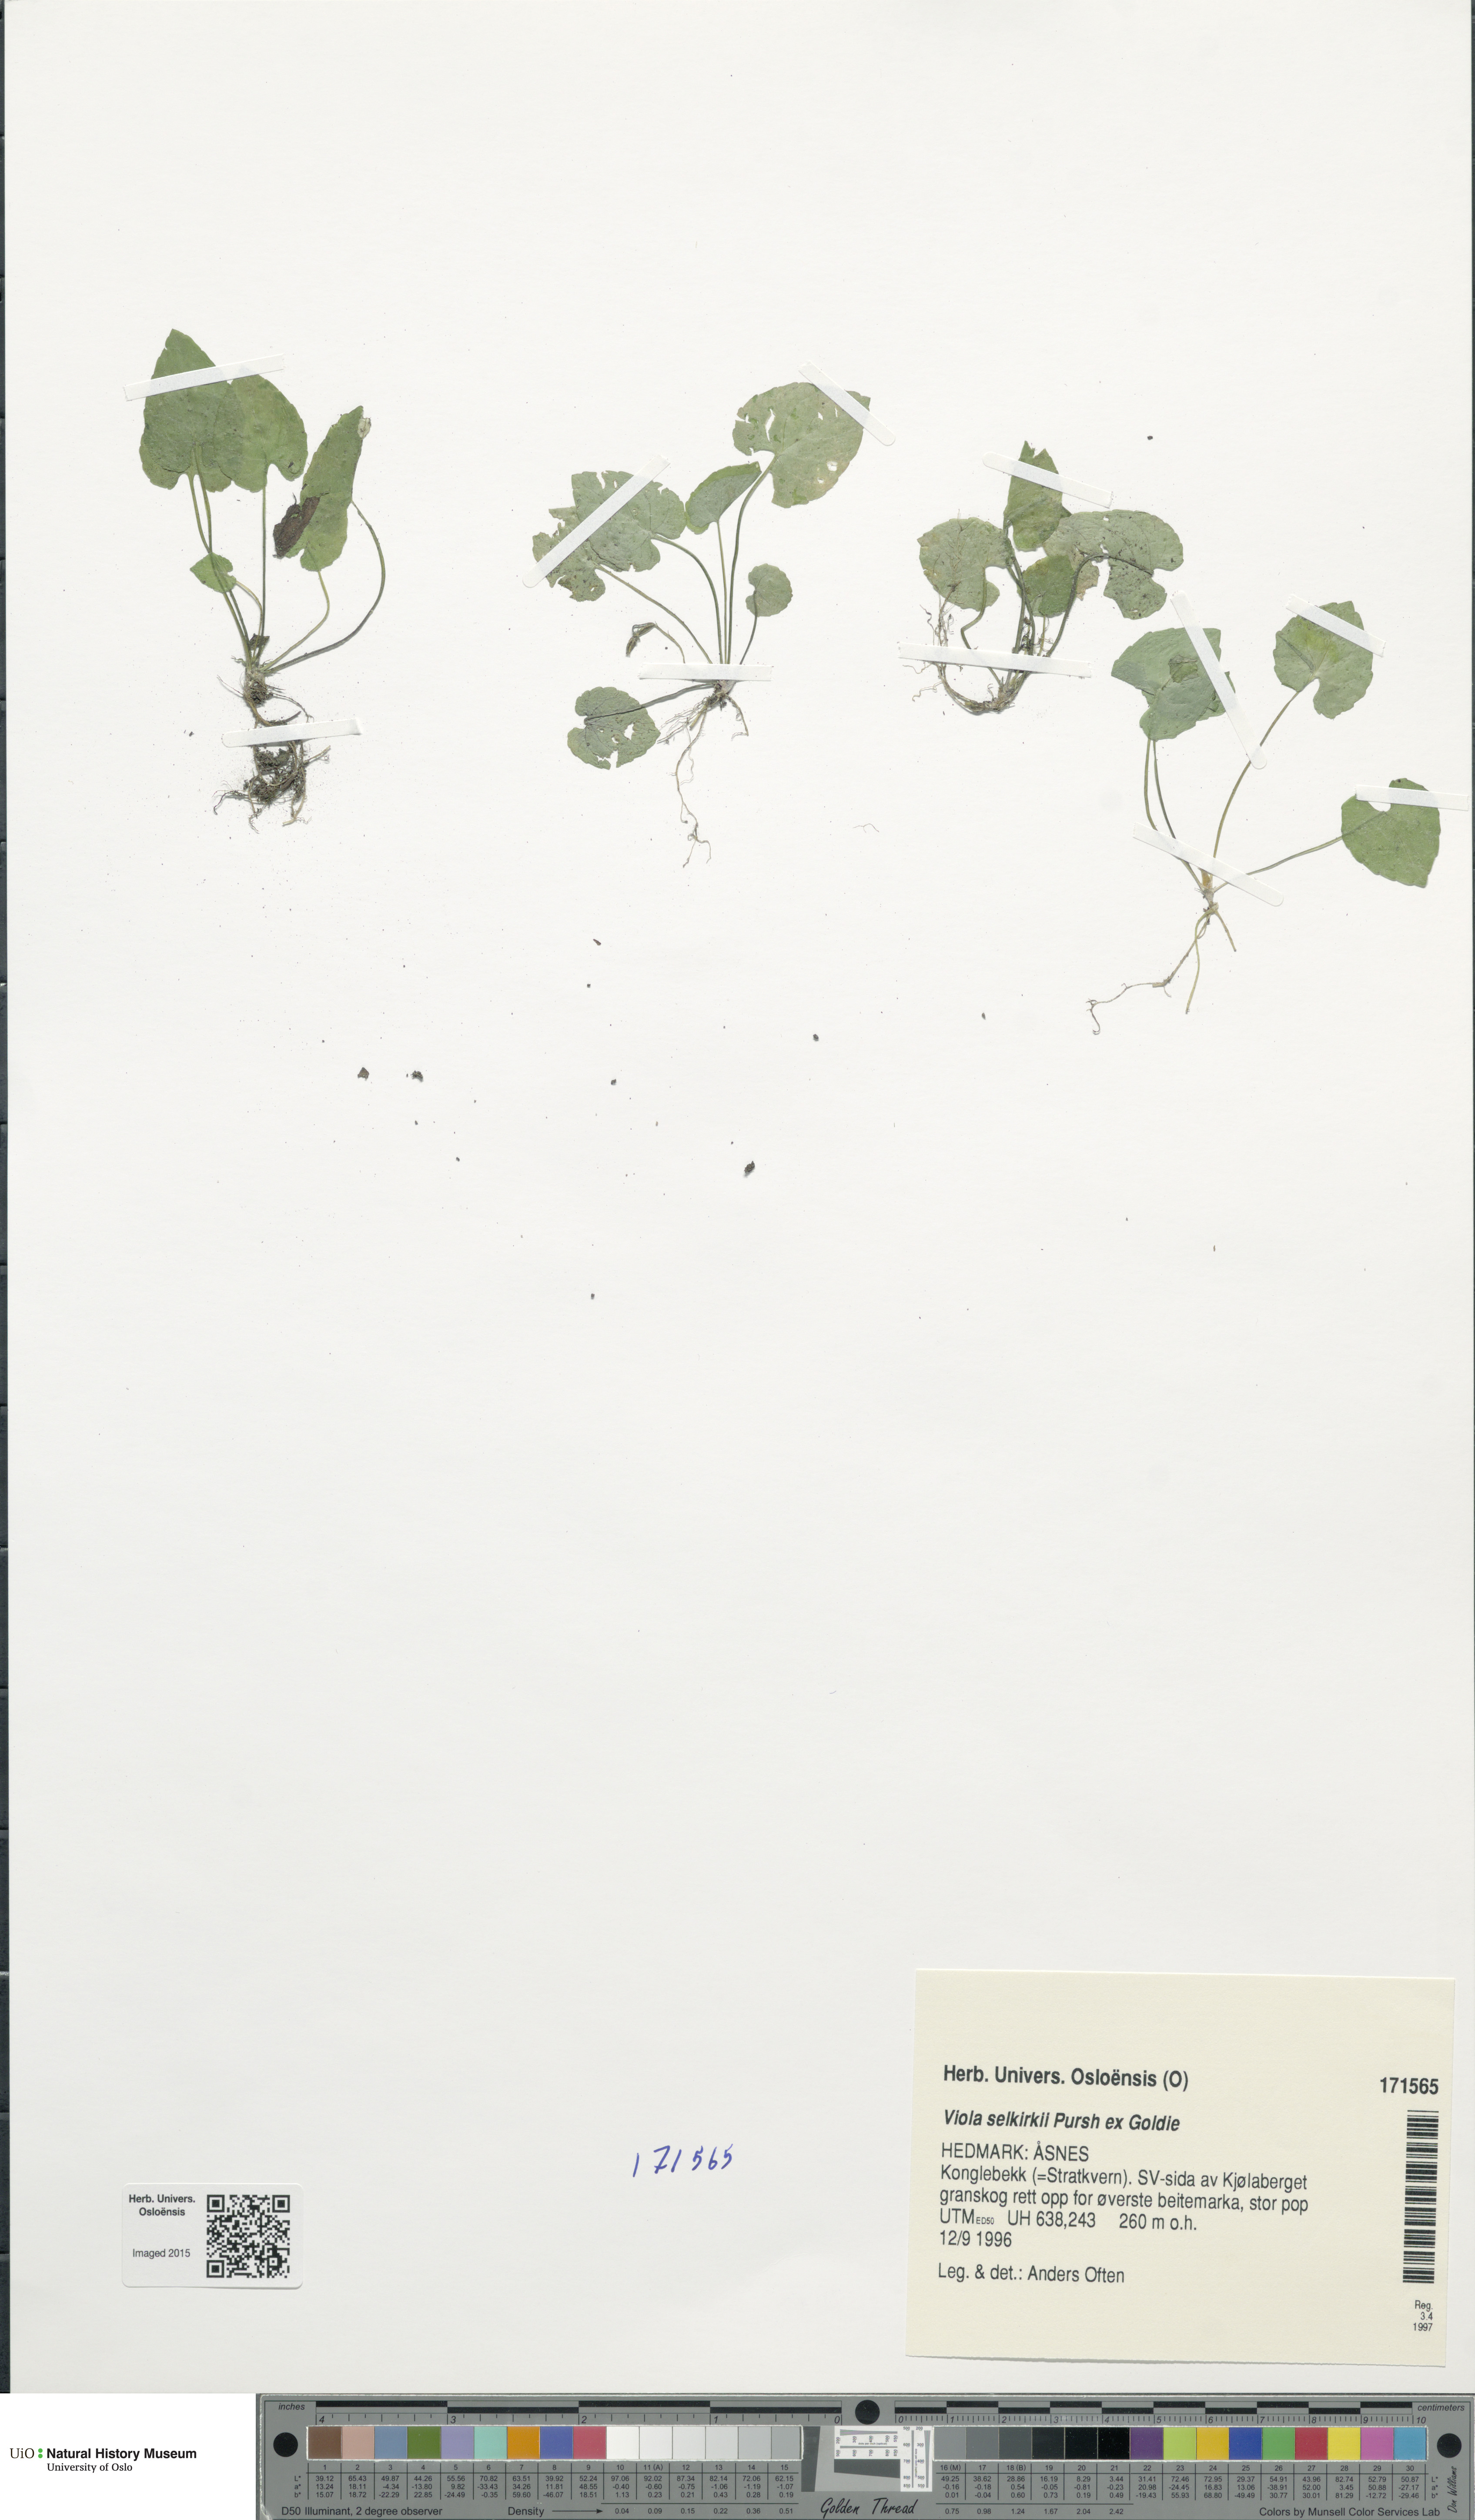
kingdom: Plantae
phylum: Tracheophyta
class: Magnoliopsida
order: Malpighiales
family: Violaceae
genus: Viola
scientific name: Viola selkirkii
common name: Selkirk's violet
